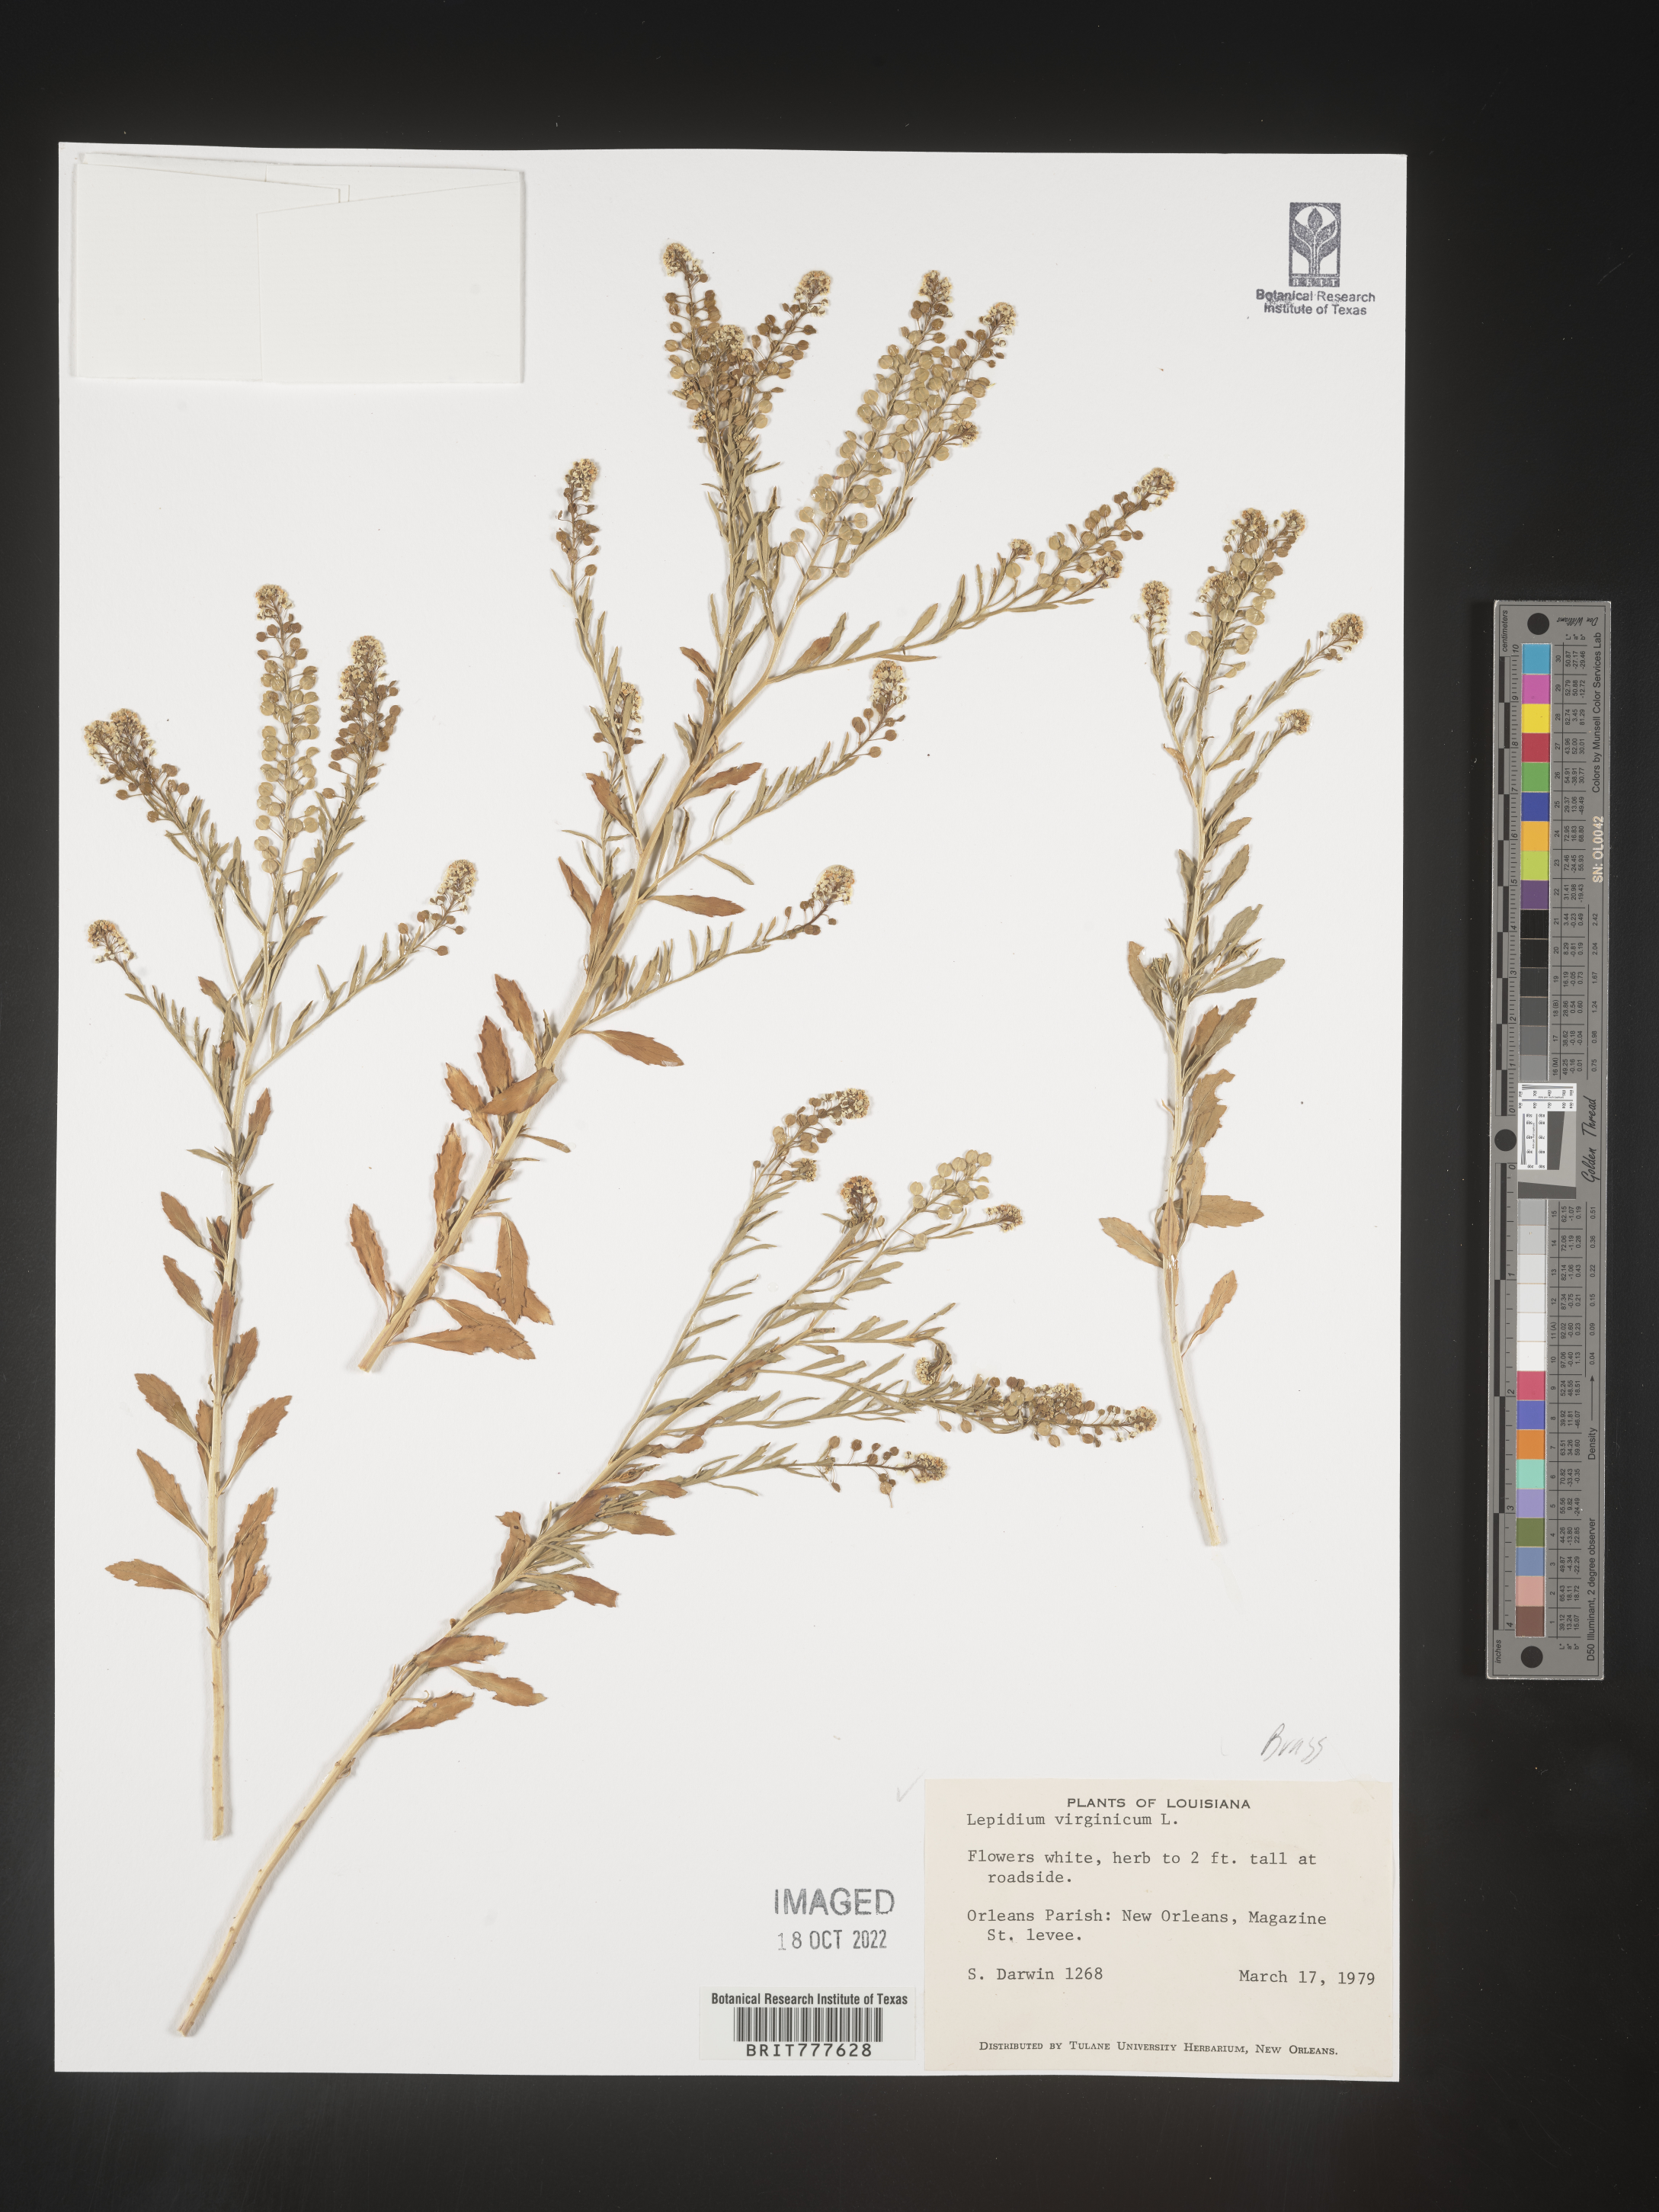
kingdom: Plantae
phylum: Tracheophyta
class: Magnoliopsida
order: Brassicales
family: Brassicaceae
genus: Lepidium
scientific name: Lepidium virginicum
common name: Least pepperwort
